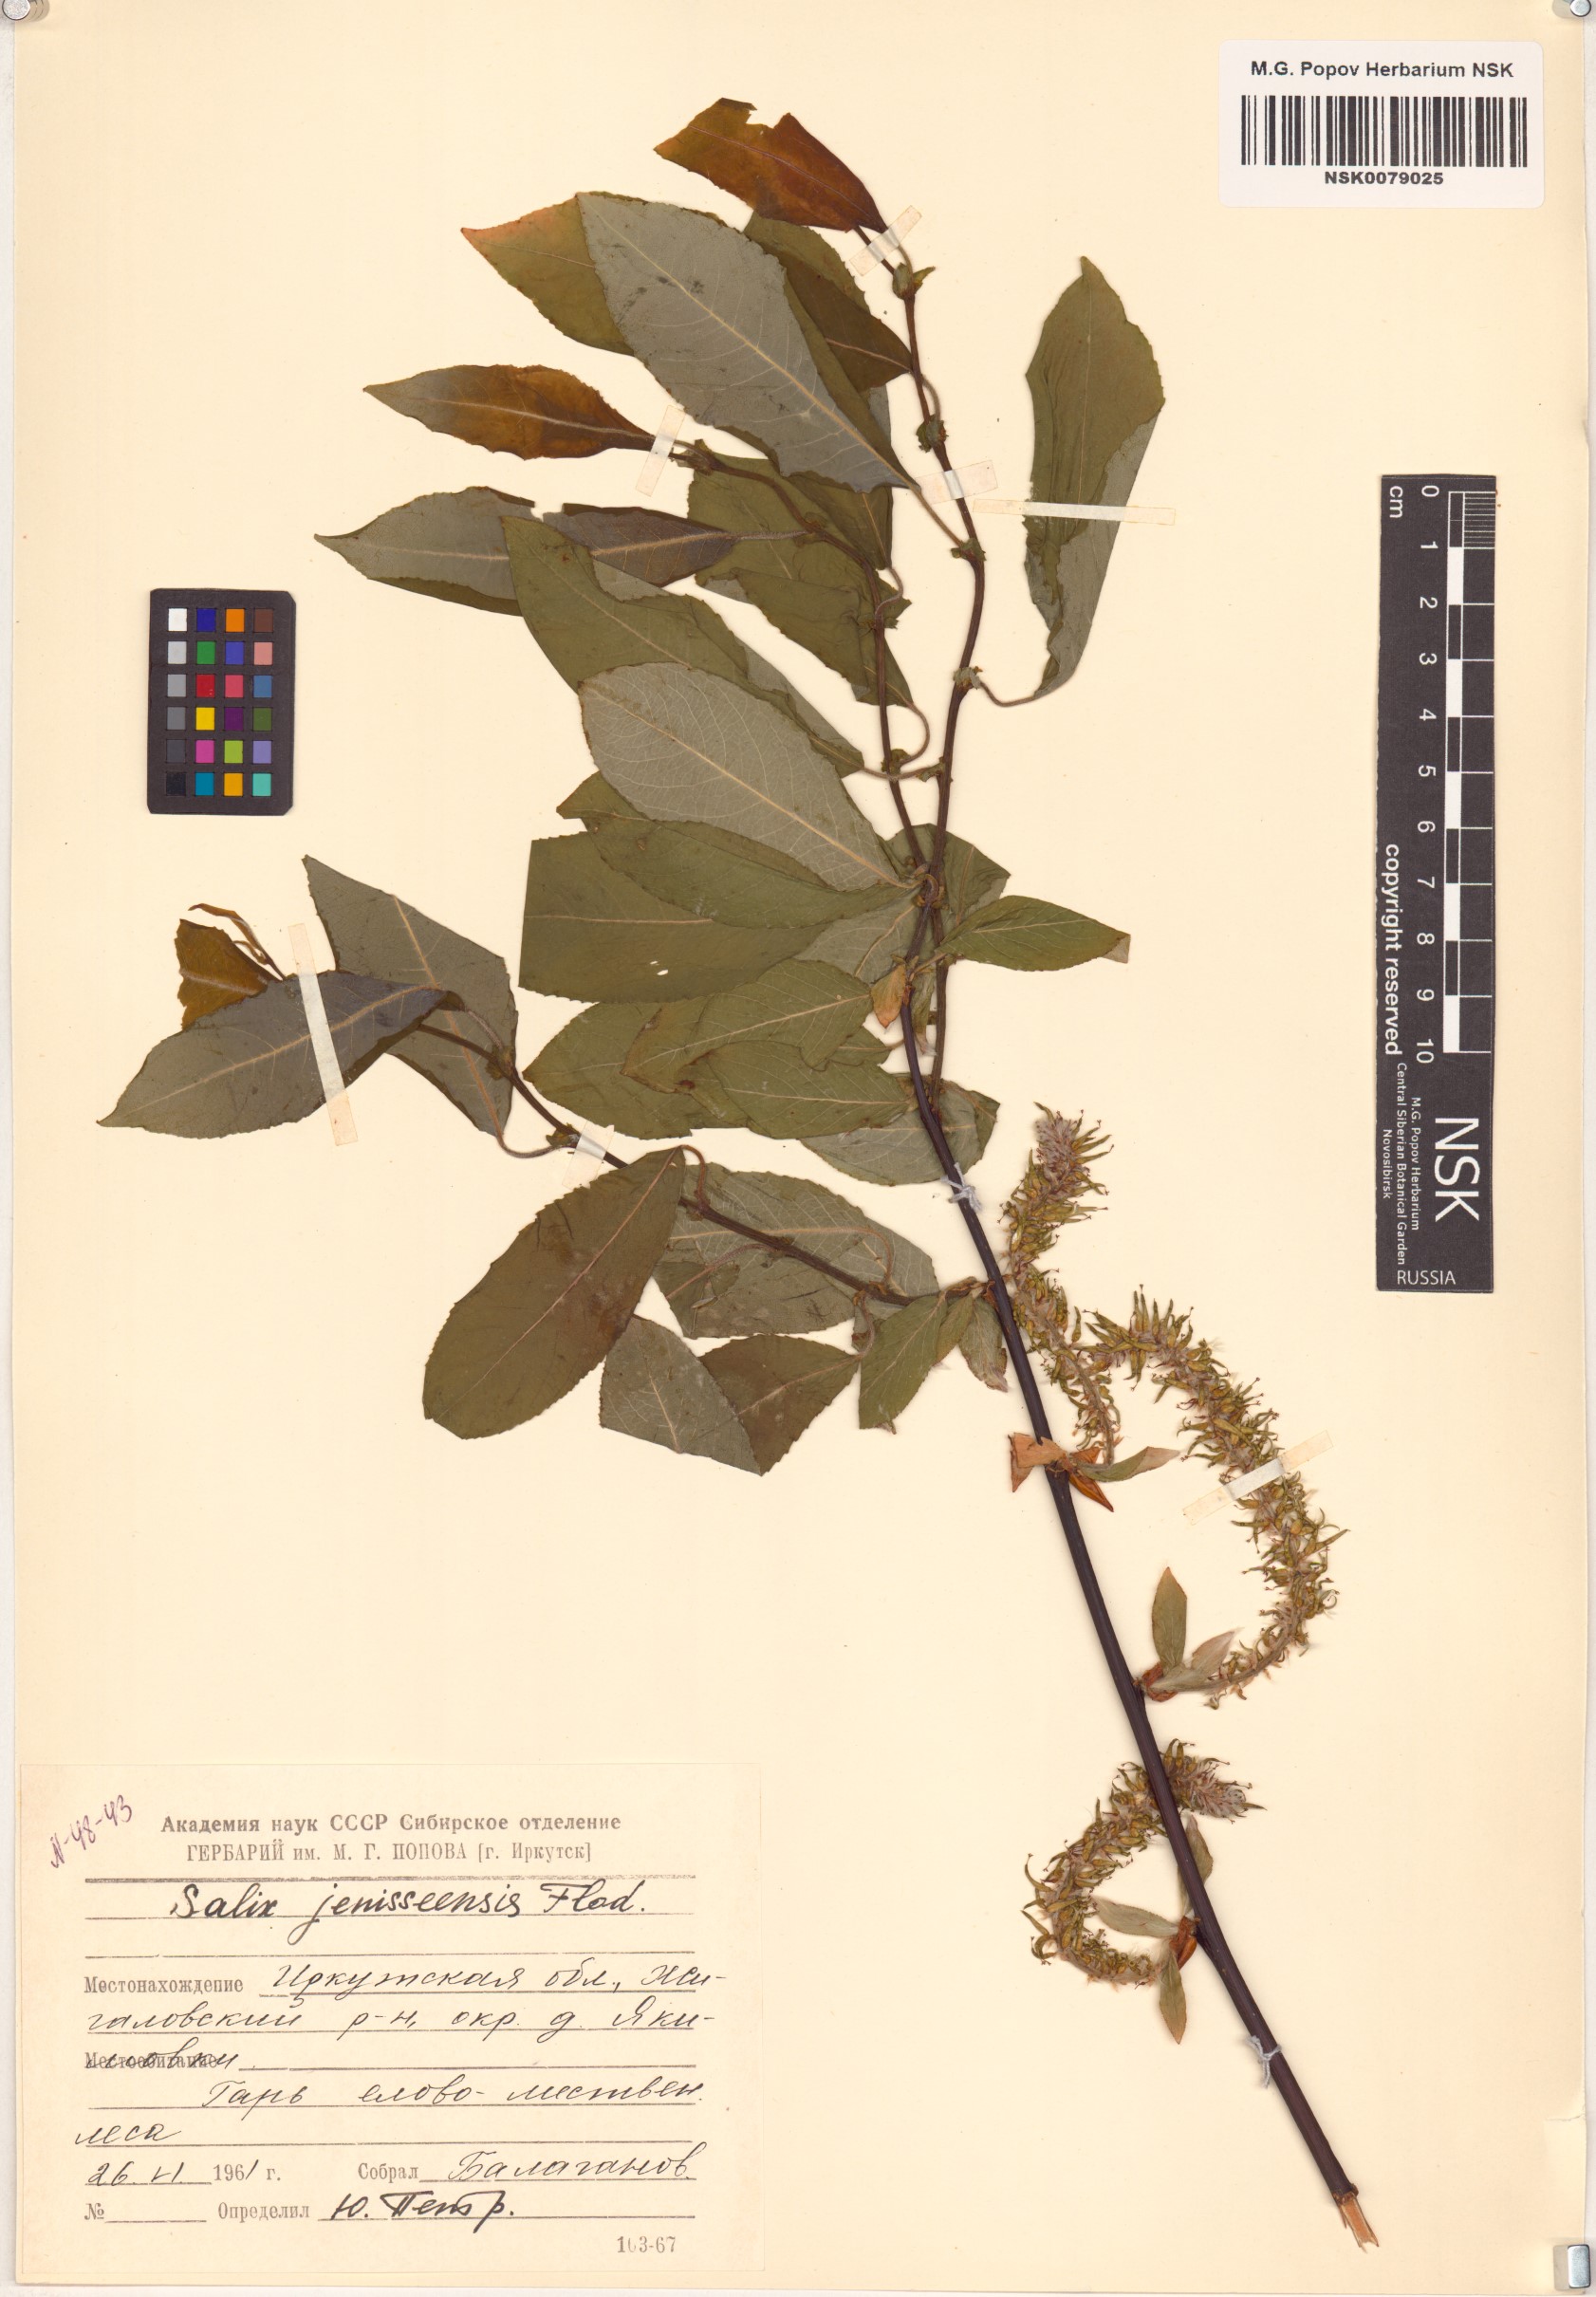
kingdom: Plantae
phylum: Tracheophyta
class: Magnoliopsida
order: Malpighiales
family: Salicaceae
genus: Salix
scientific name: Salix jenisseensis
